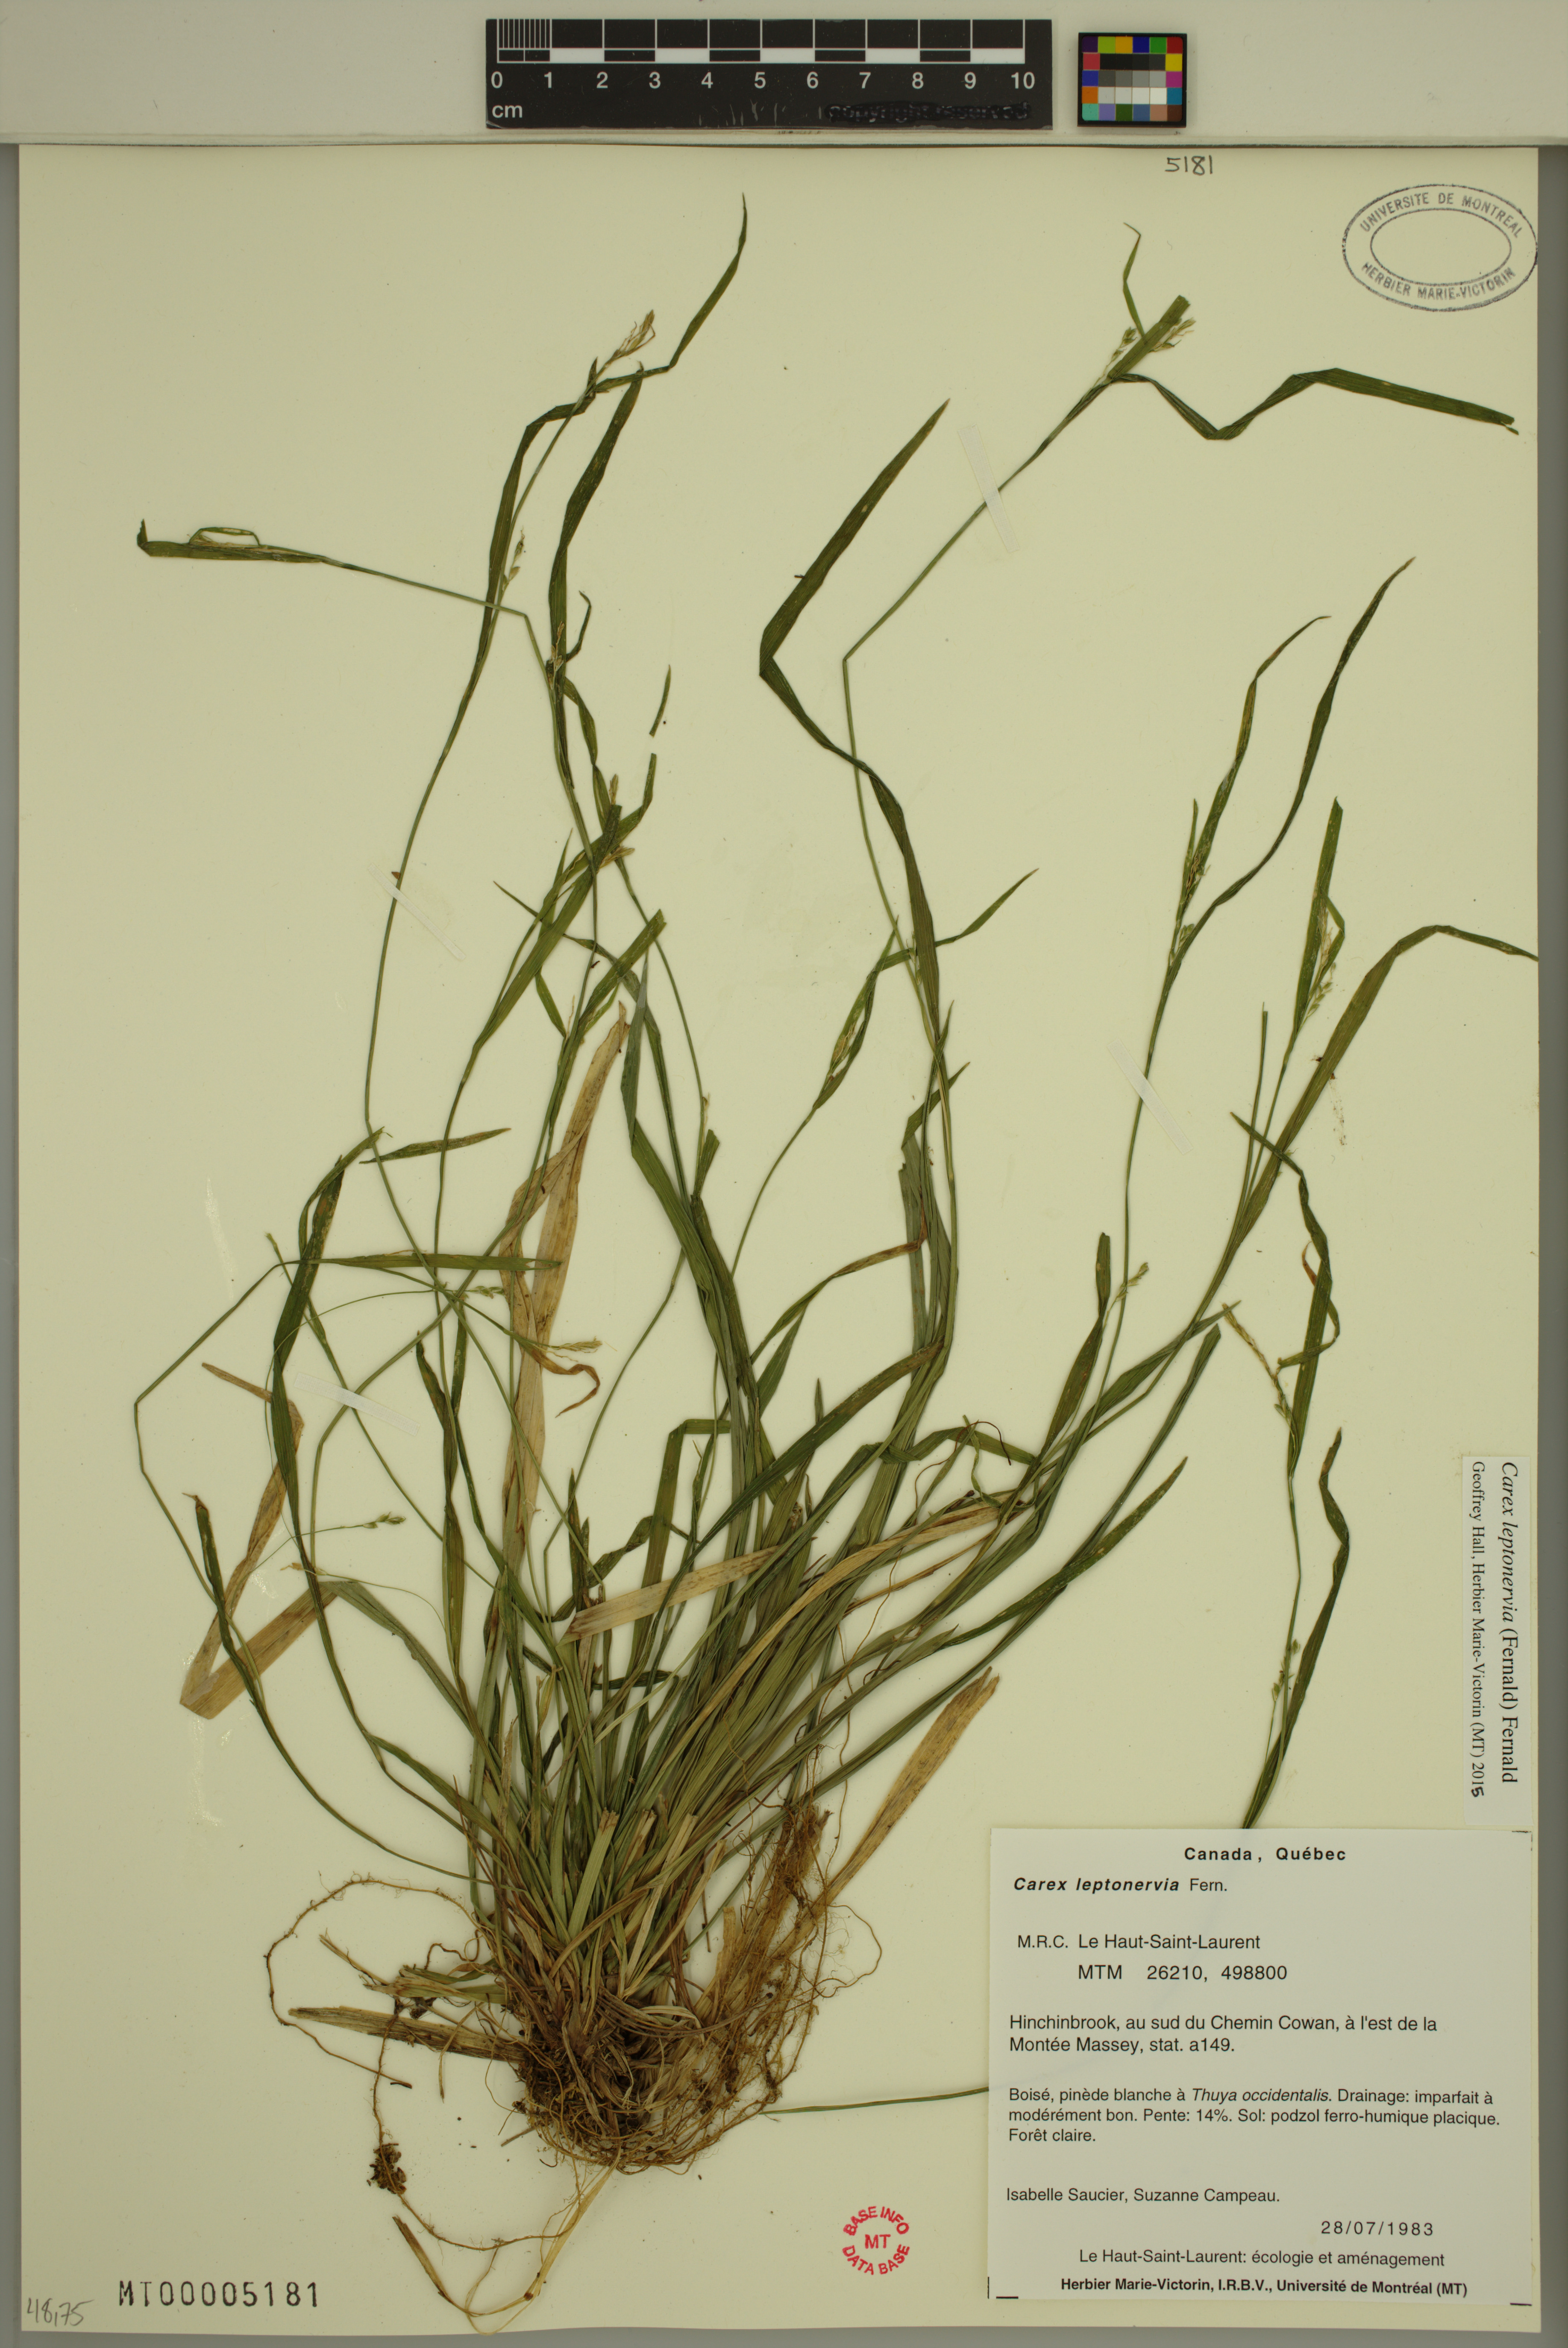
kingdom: Plantae
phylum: Tracheophyta
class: Liliopsida
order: Poales
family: Cyperaceae
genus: Carex
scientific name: Carex leptonervia
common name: Few-nerved wood sedge
